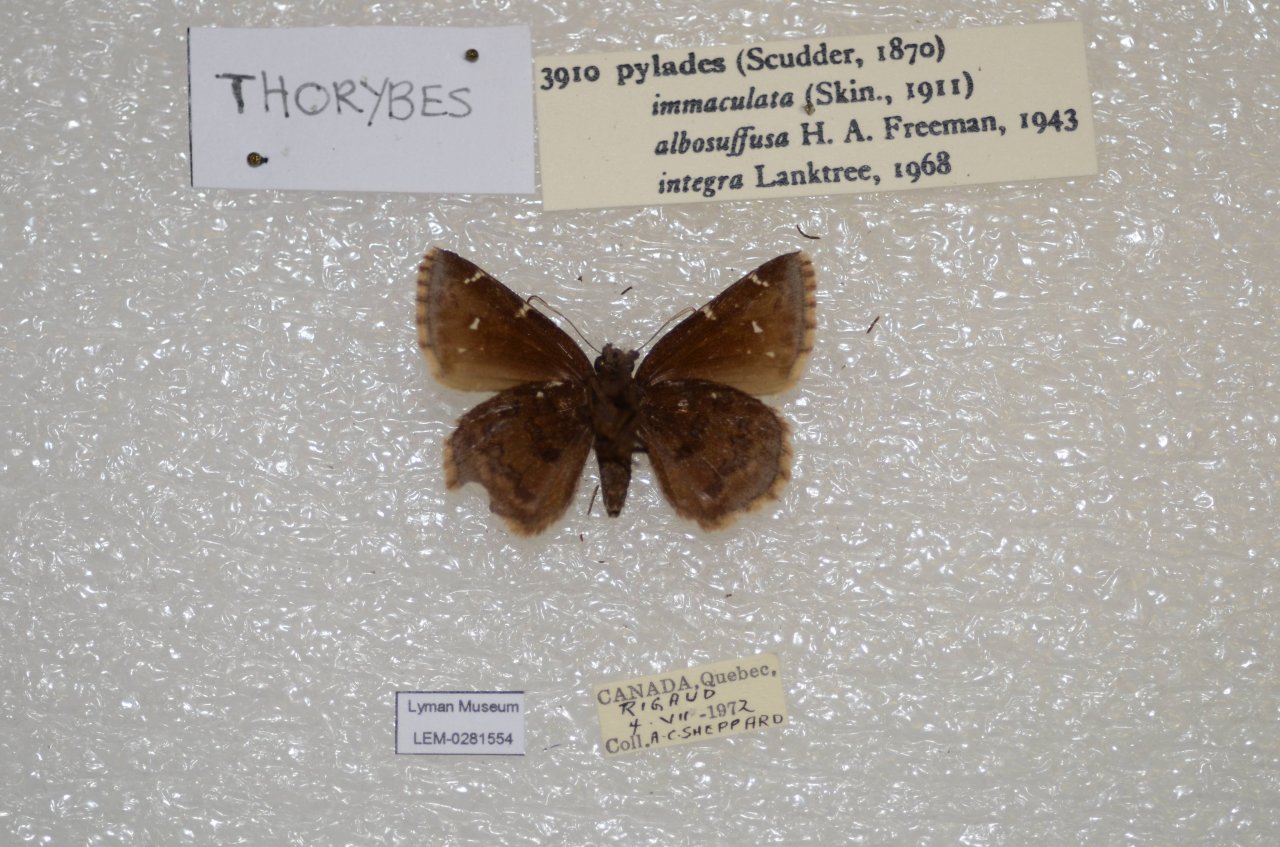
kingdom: Animalia
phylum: Arthropoda
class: Insecta
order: Lepidoptera
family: Hesperiidae
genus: Autochton
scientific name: Autochton
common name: Northern Cloudywing
